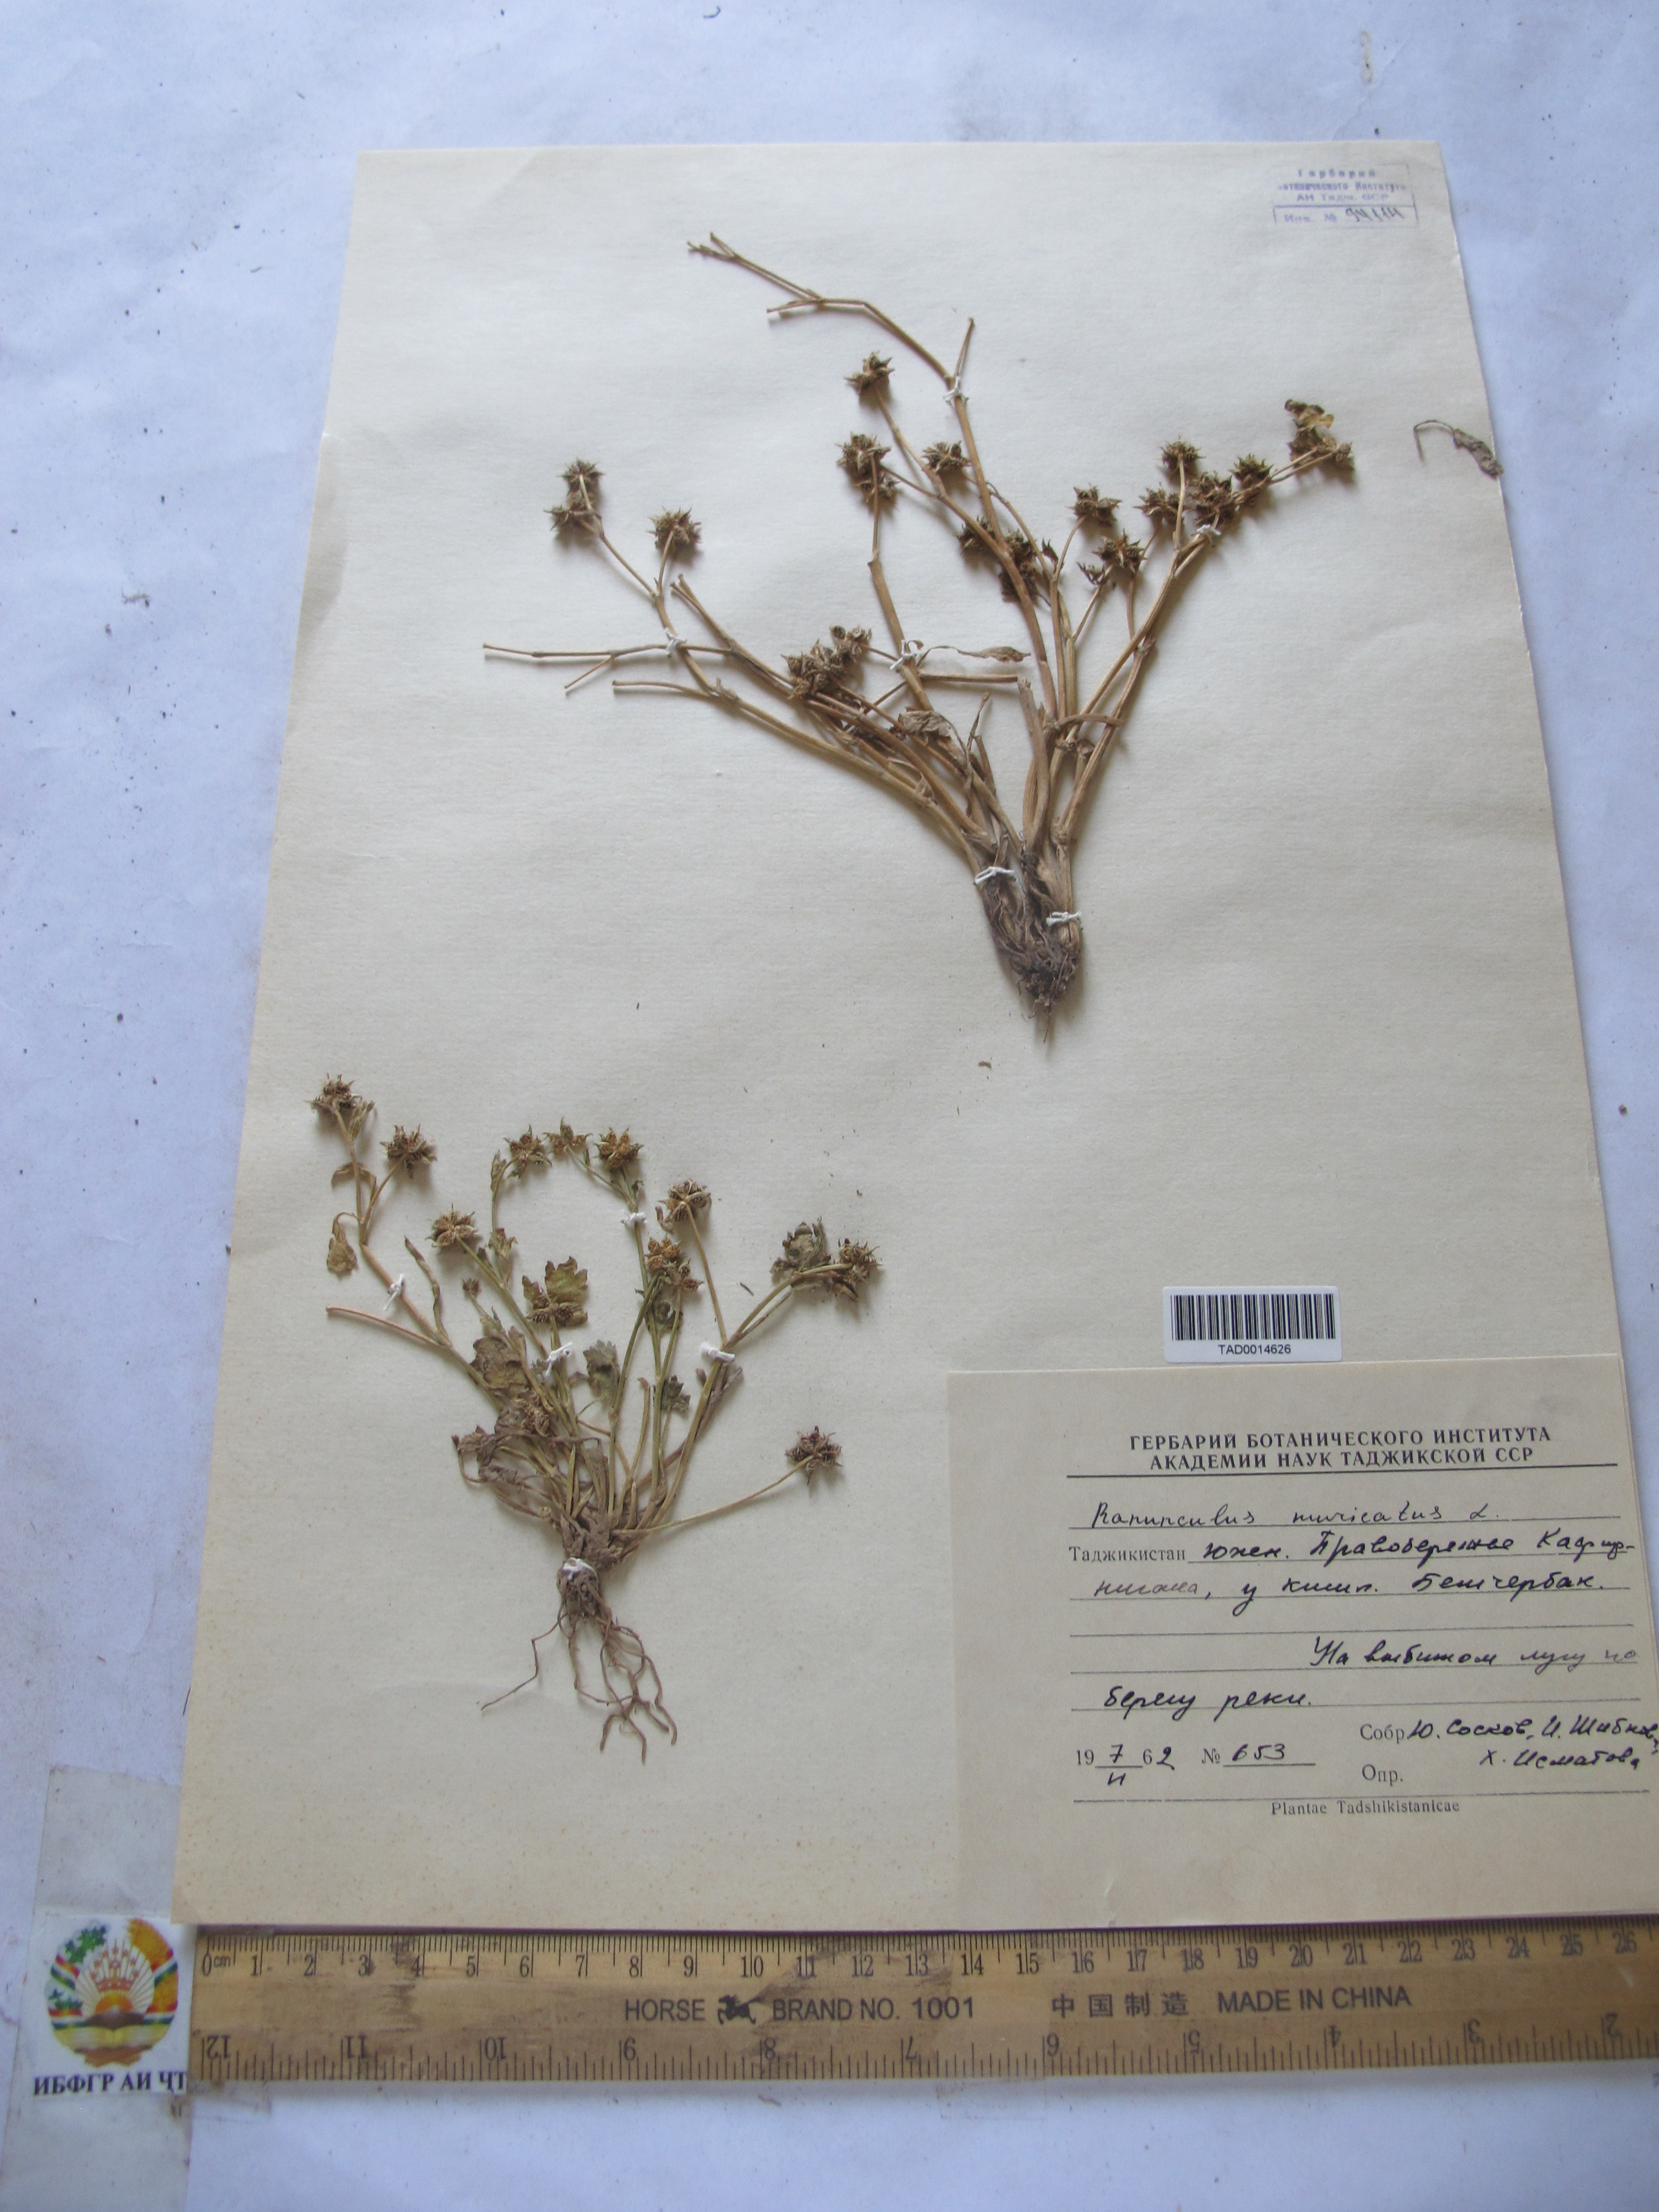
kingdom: Plantae
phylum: Tracheophyta
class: Magnoliopsida
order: Ranunculales
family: Ranunculaceae
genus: Ranunculus
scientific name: Ranunculus muricatus
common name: Rough-fruited buttercup
